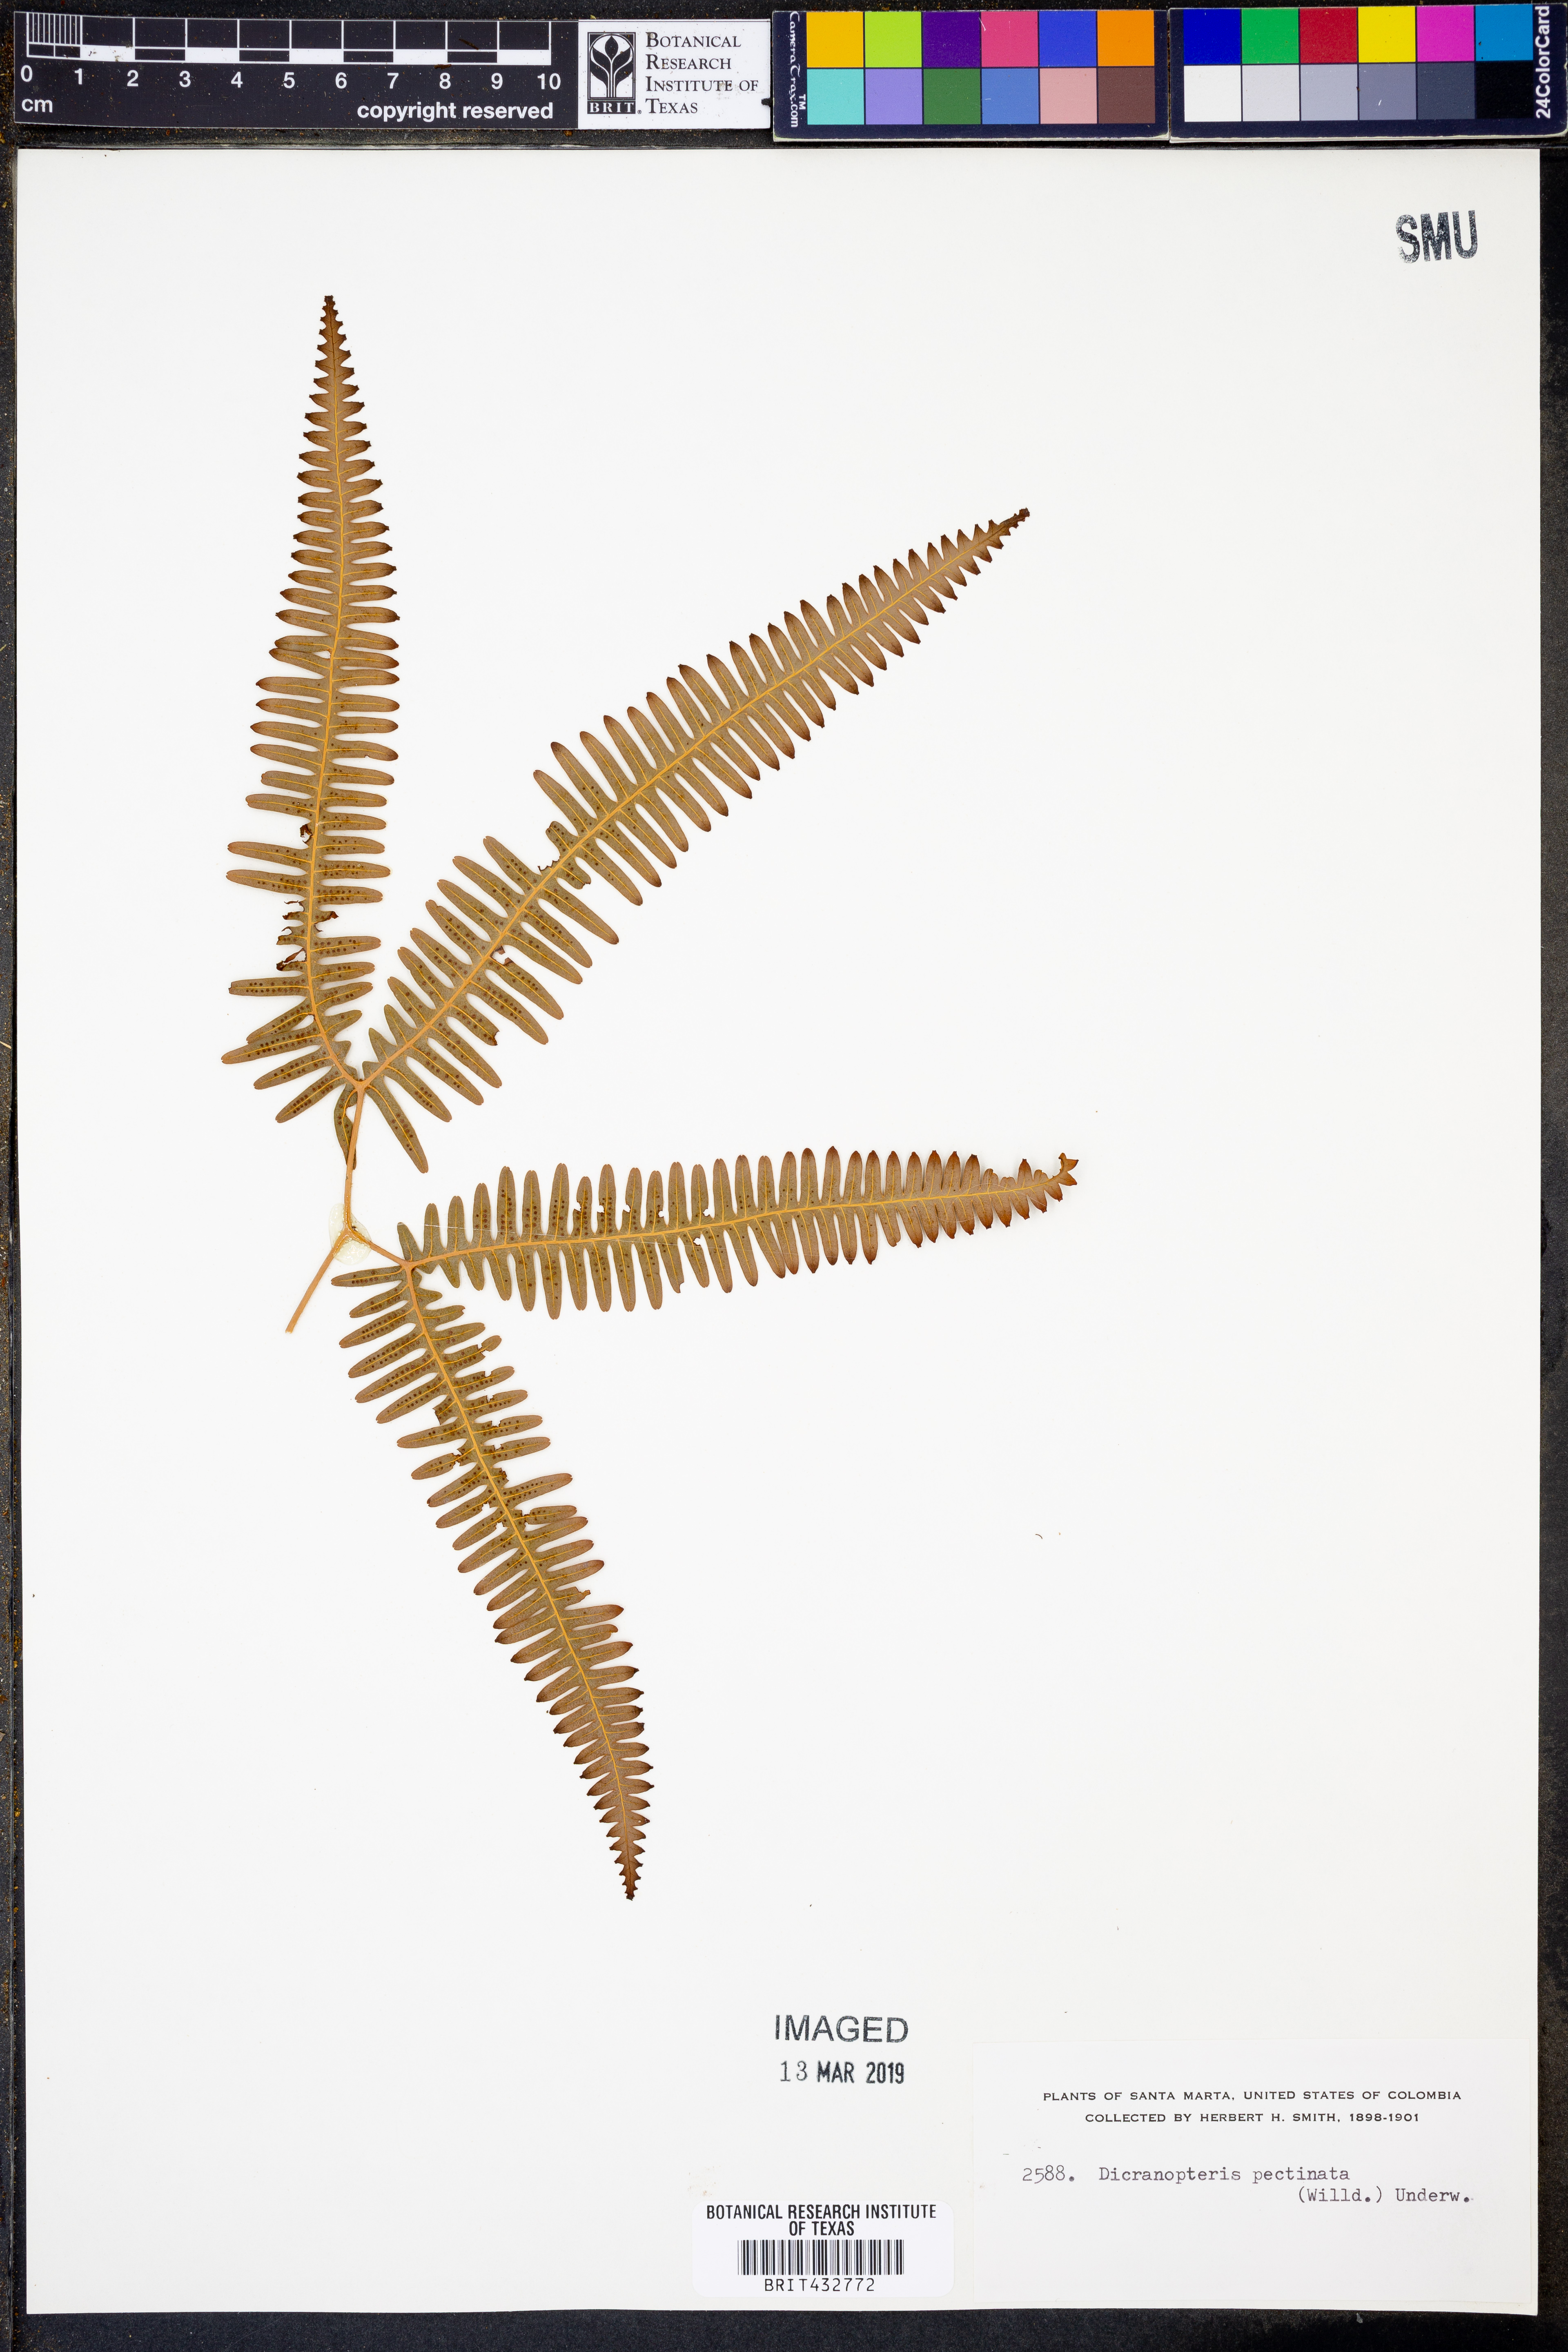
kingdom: Plantae
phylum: Tracheophyta
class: Polypodiopsida
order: Gleicheniales
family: Gleicheniaceae
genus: Gleichenella
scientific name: Gleichenella pectinata
